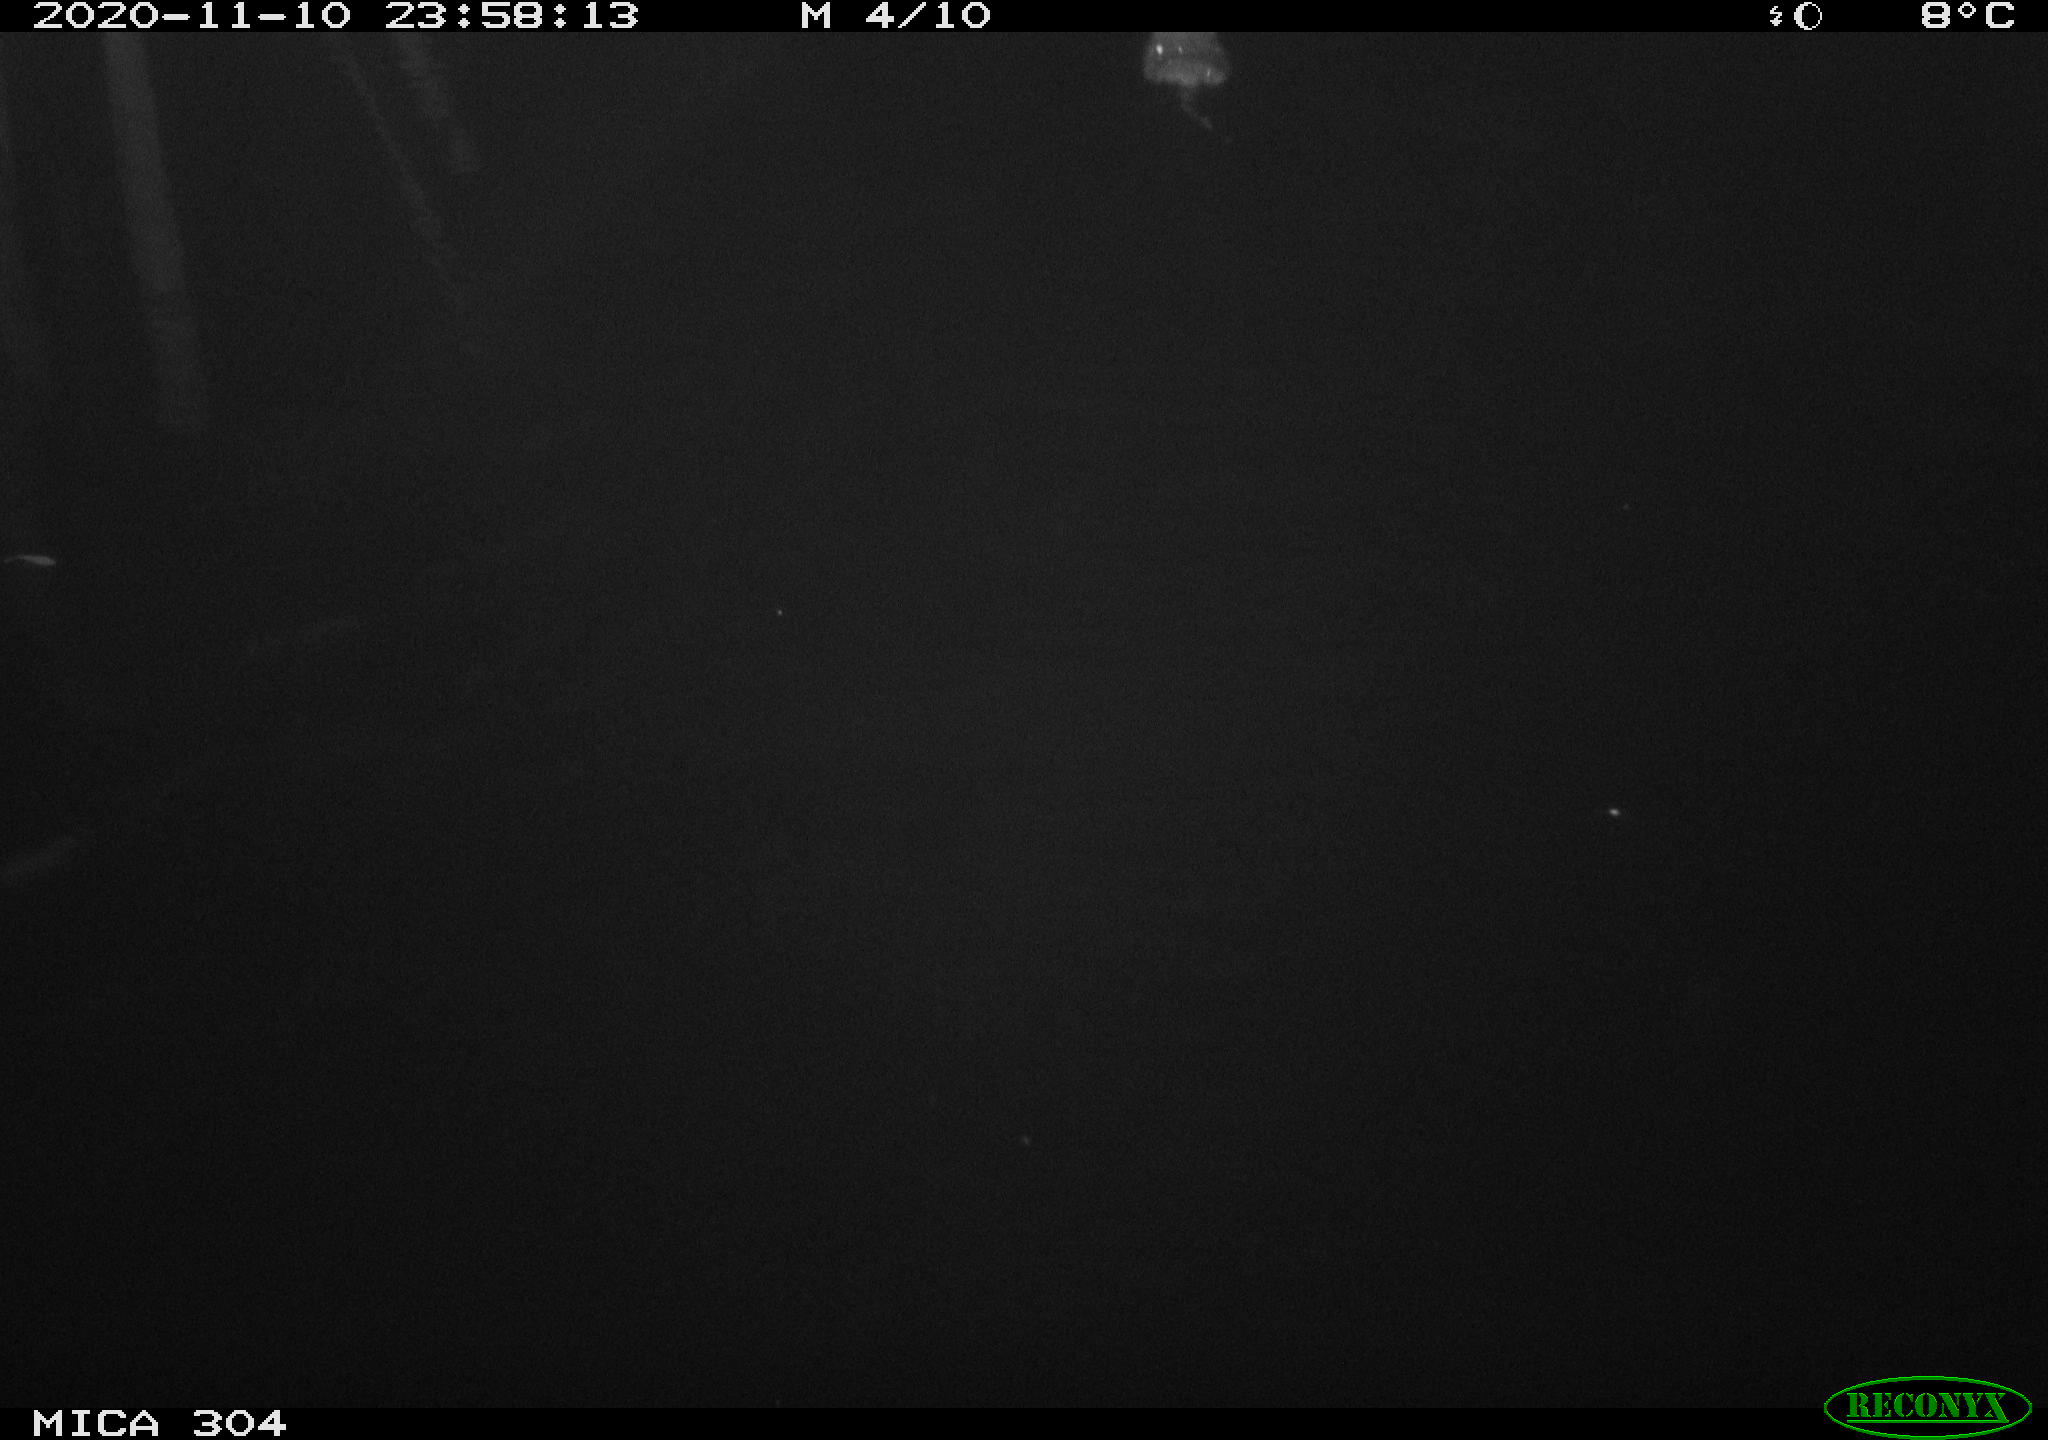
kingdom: Animalia
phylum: Chordata
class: Mammalia
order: Rodentia
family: Cricetidae
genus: Ondatra
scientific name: Ondatra zibethicus
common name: Muskrat
